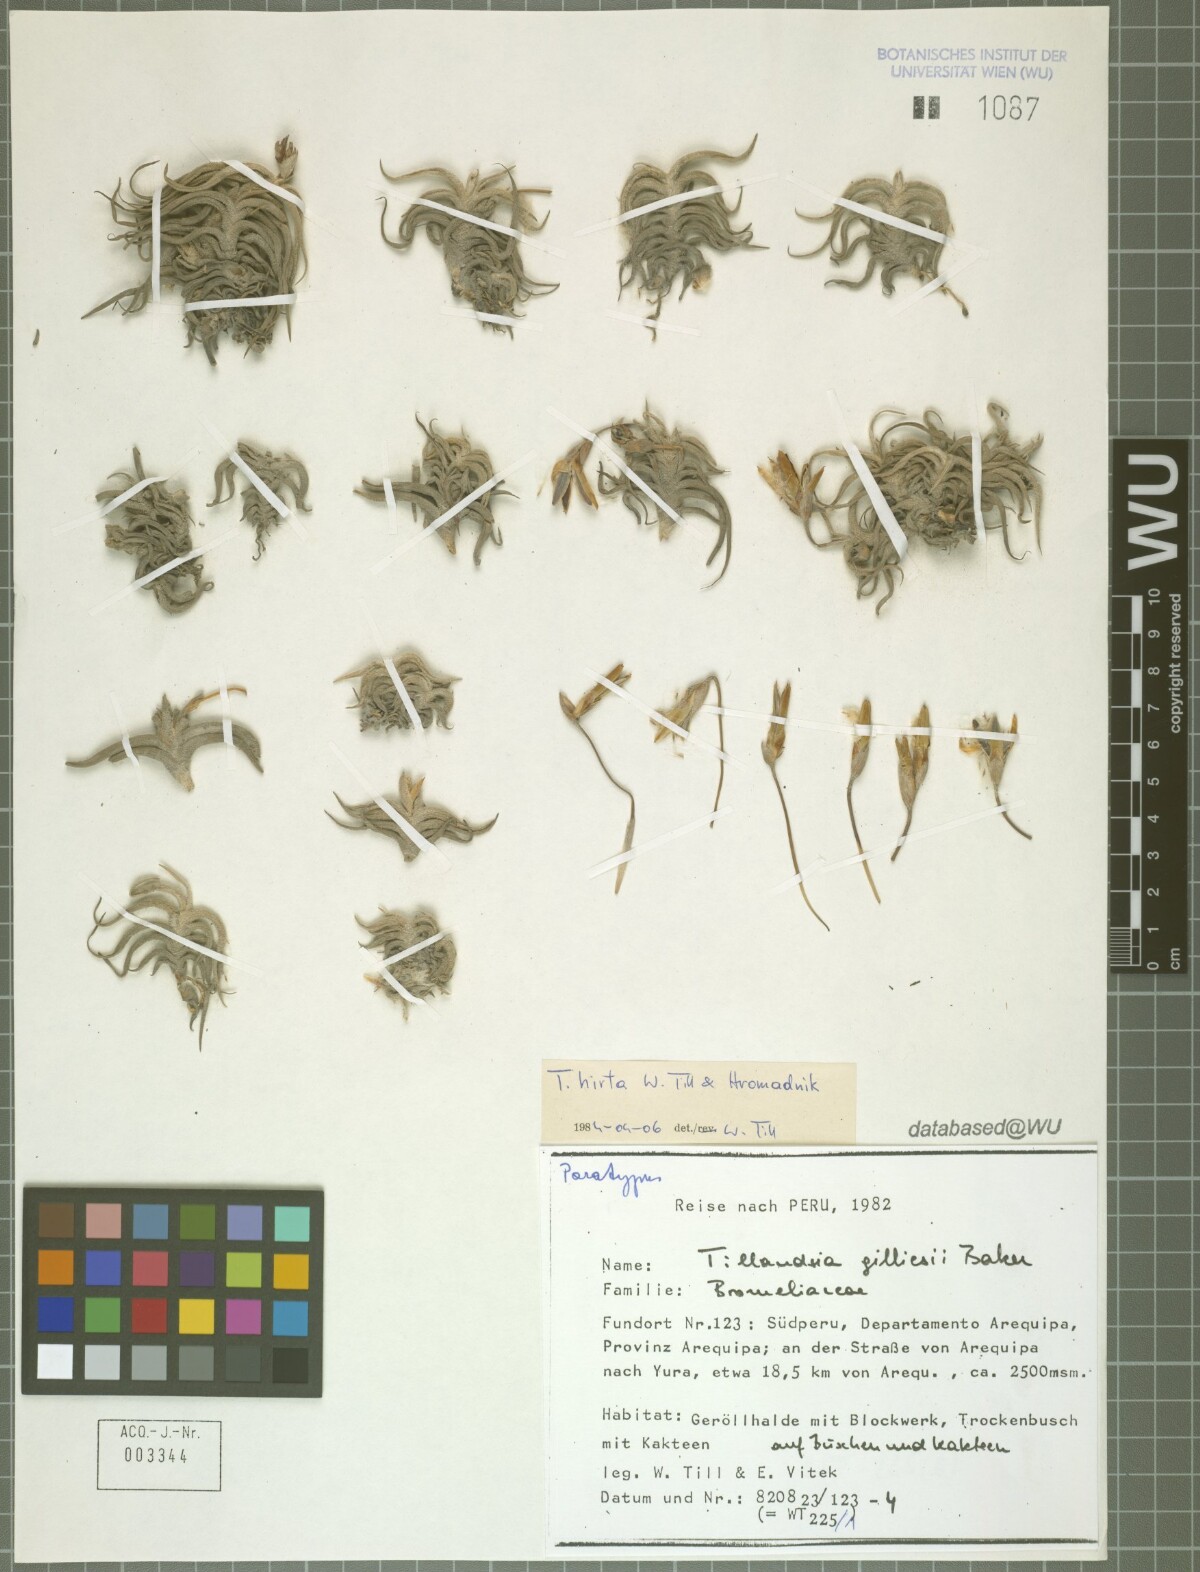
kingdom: Plantae
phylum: Tracheophyta
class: Liliopsida
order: Poales
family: Bromeliaceae
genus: Tillandsia
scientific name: Tillandsia hirta
